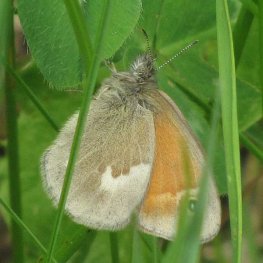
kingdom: Animalia
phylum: Arthropoda
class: Insecta
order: Lepidoptera
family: Nymphalidae
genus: Coenonympha
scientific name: Coenonympha tullia
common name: Large Heath
